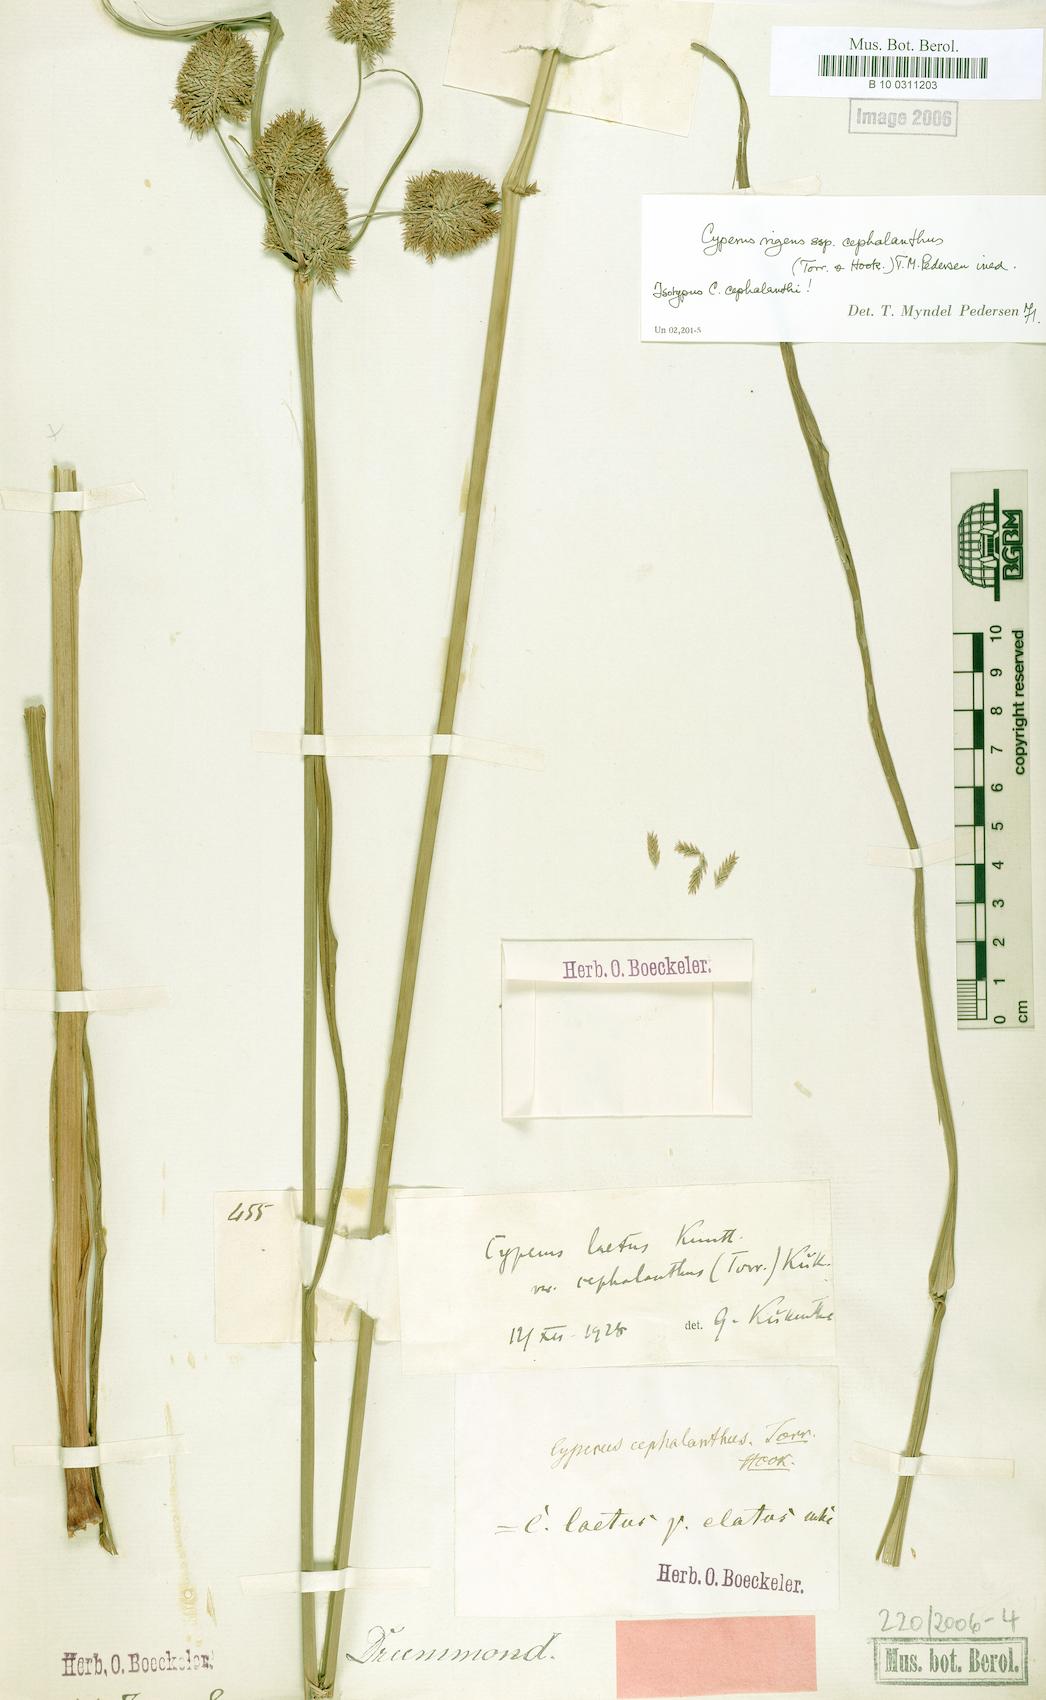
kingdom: Plantae
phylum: Tracheophyta
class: Liliopsida
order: Poales
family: Cyperaceae
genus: Cyperus
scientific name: Cyperus cephalanthus
